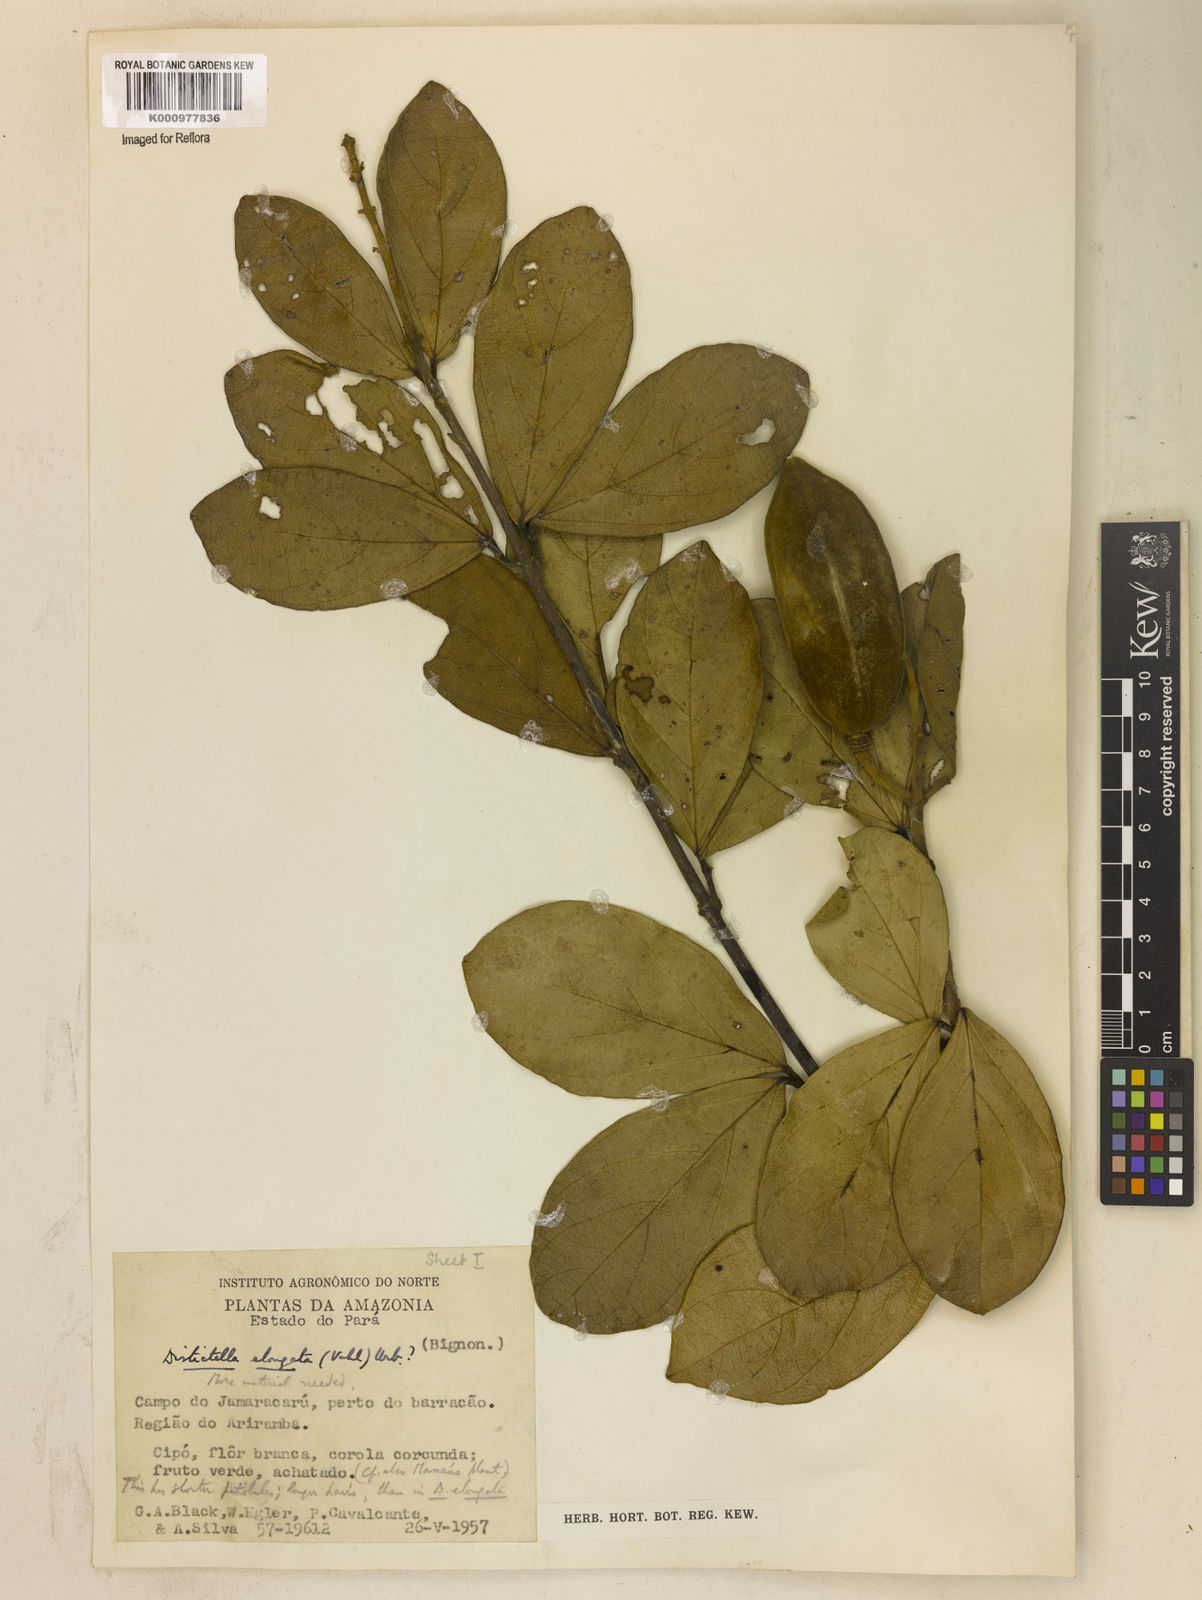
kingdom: Plantae
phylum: Tracheophyta
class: Magnoliopsida
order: Lamiales
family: Bignoniaceae
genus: Amphilophium
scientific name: Amphilophium elongatum
